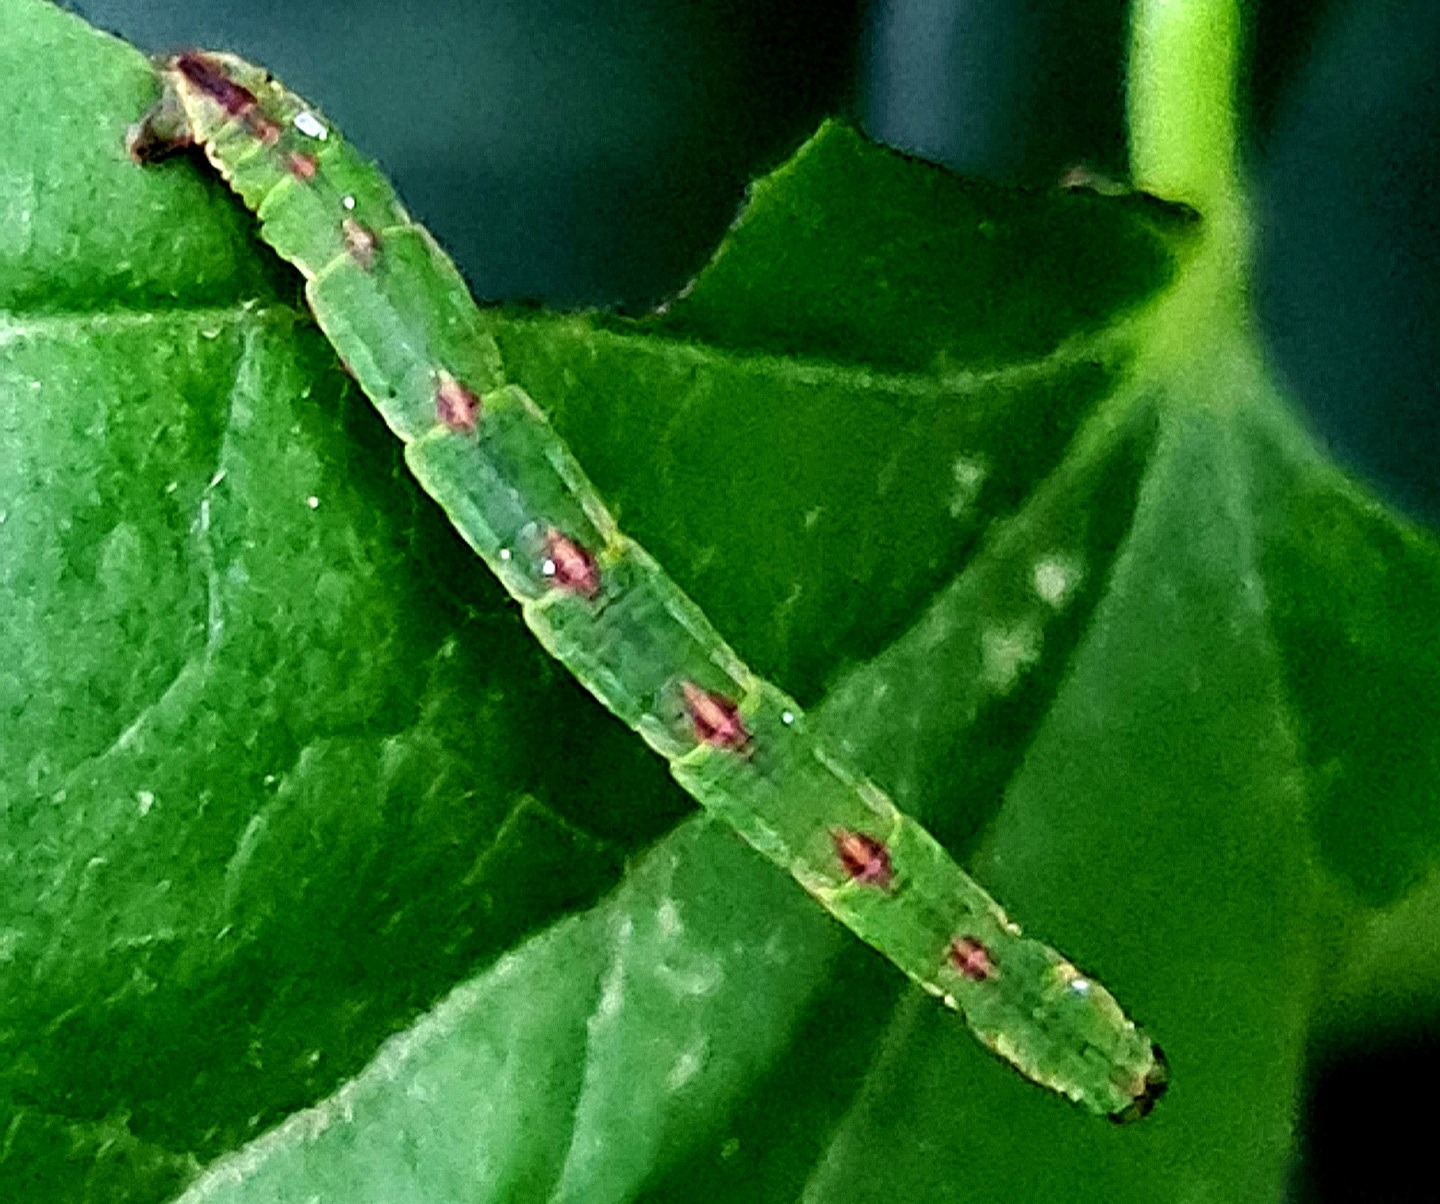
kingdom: Animalia
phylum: Arthropoda
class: Insecta
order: Lepidoptera
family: Geometridae
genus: Eupithecia
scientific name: Eupithecia exiguata
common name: Stregdværgmåler
